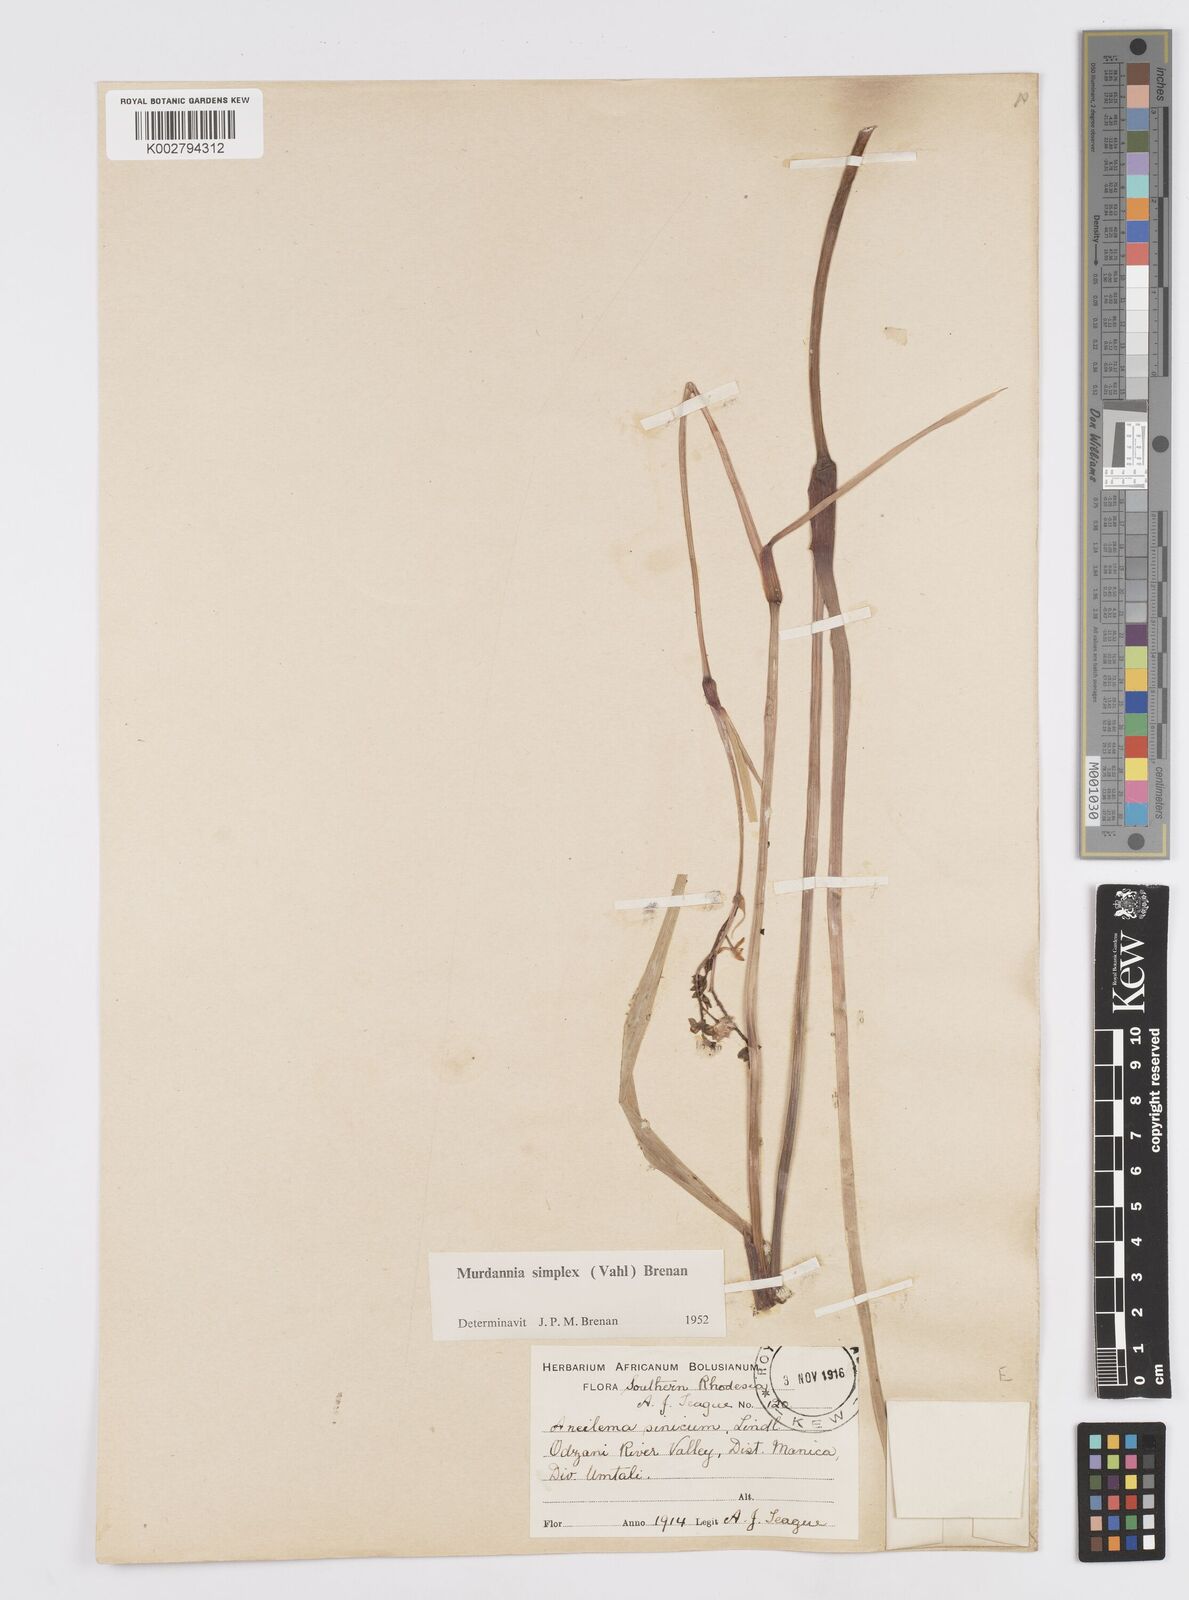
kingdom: Plantae
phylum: Tracheophyta
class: Liliopsida
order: Commelinales
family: Commelinaceae
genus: Murdannia
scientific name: Murdannia simplex
